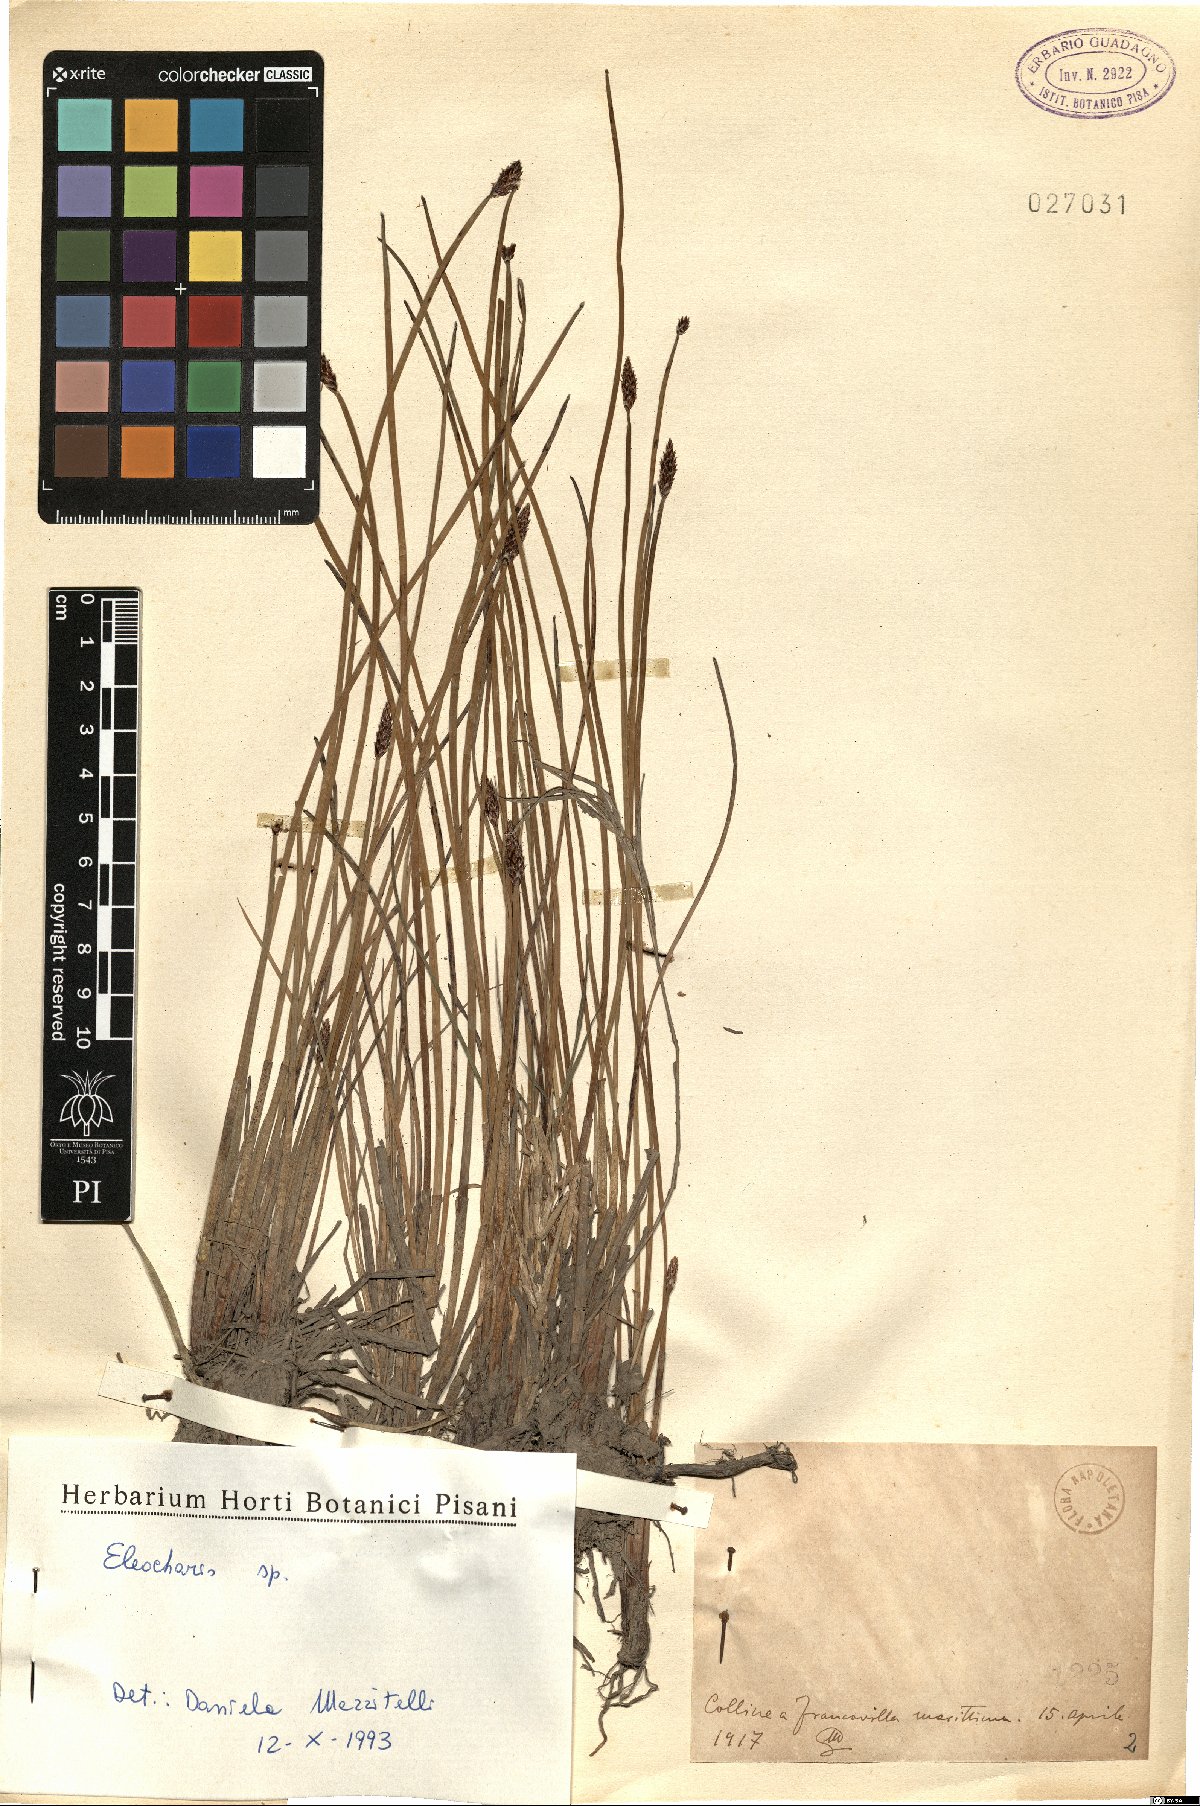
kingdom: Plantae
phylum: Tracheophyta
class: Liliopsida
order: Poales
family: Cyperaceae
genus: Eleocharis
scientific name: Eleocharis
